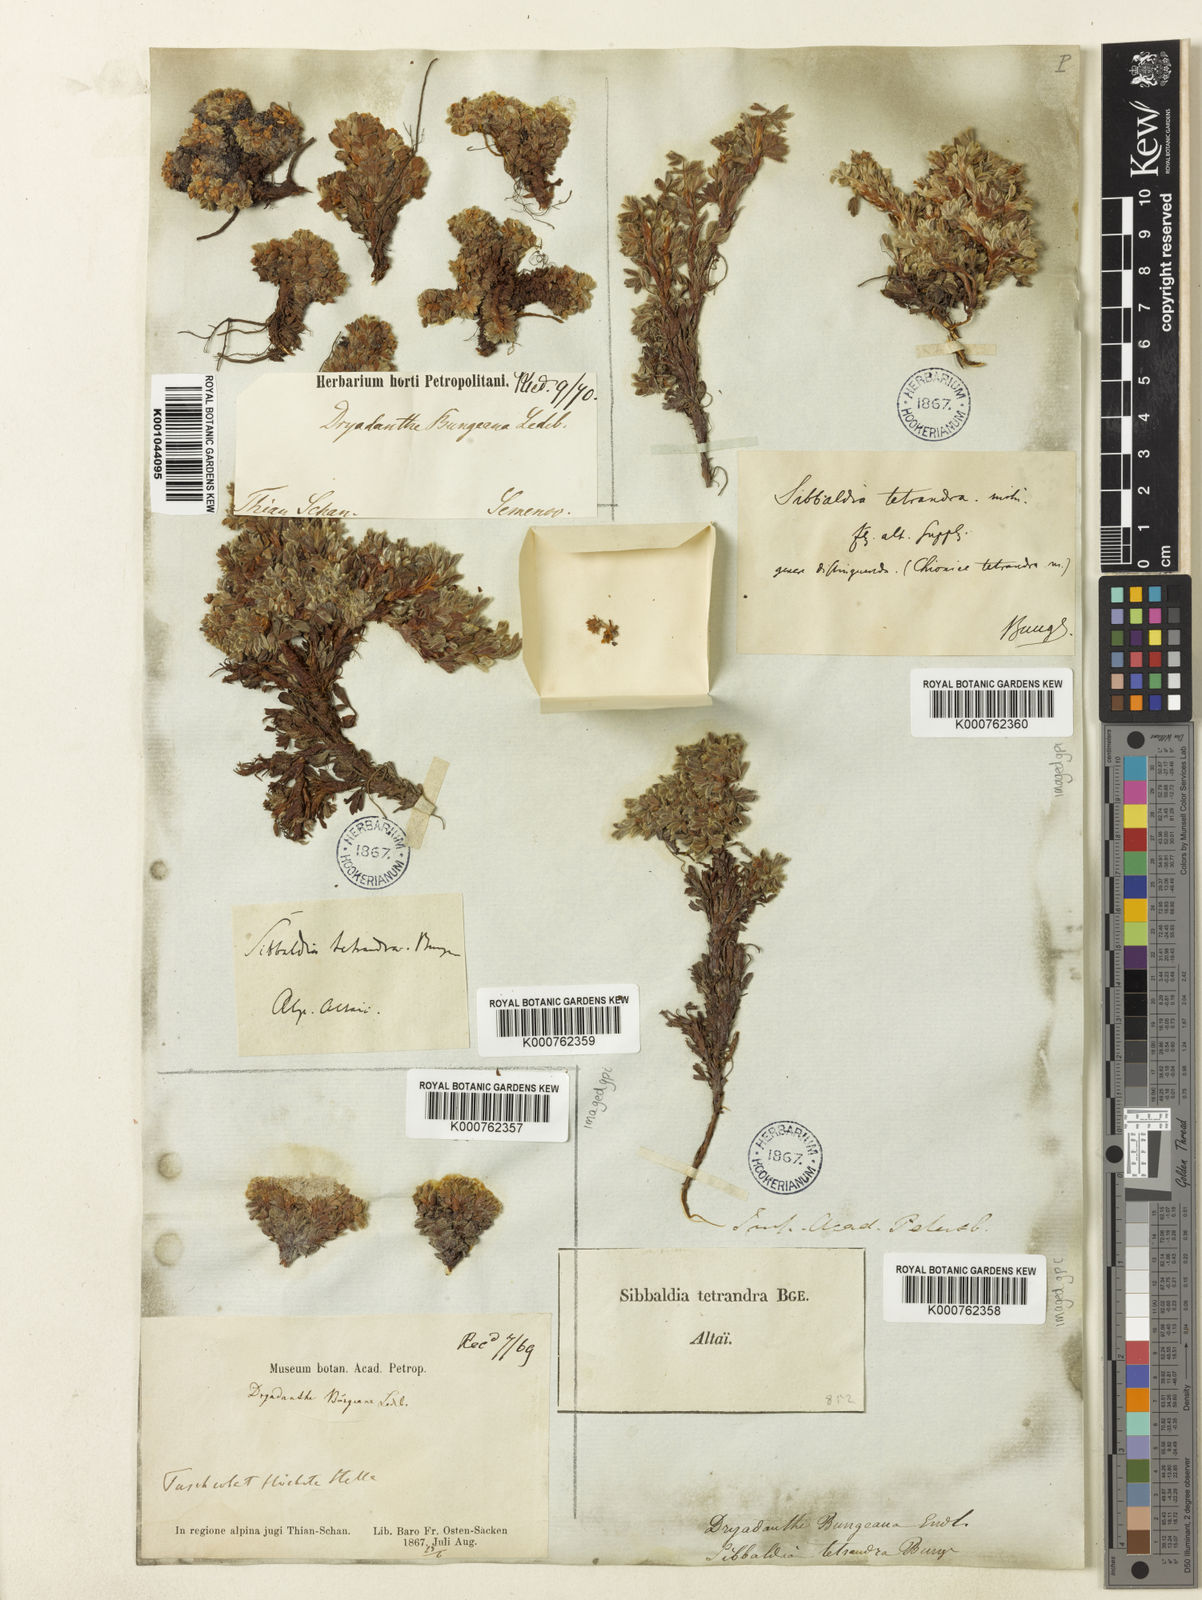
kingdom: Plantae
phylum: Tracheophyta
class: Magnoliopsida
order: Rosales
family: Rosaceae
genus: Potentilla
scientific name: Potentilla bungei
